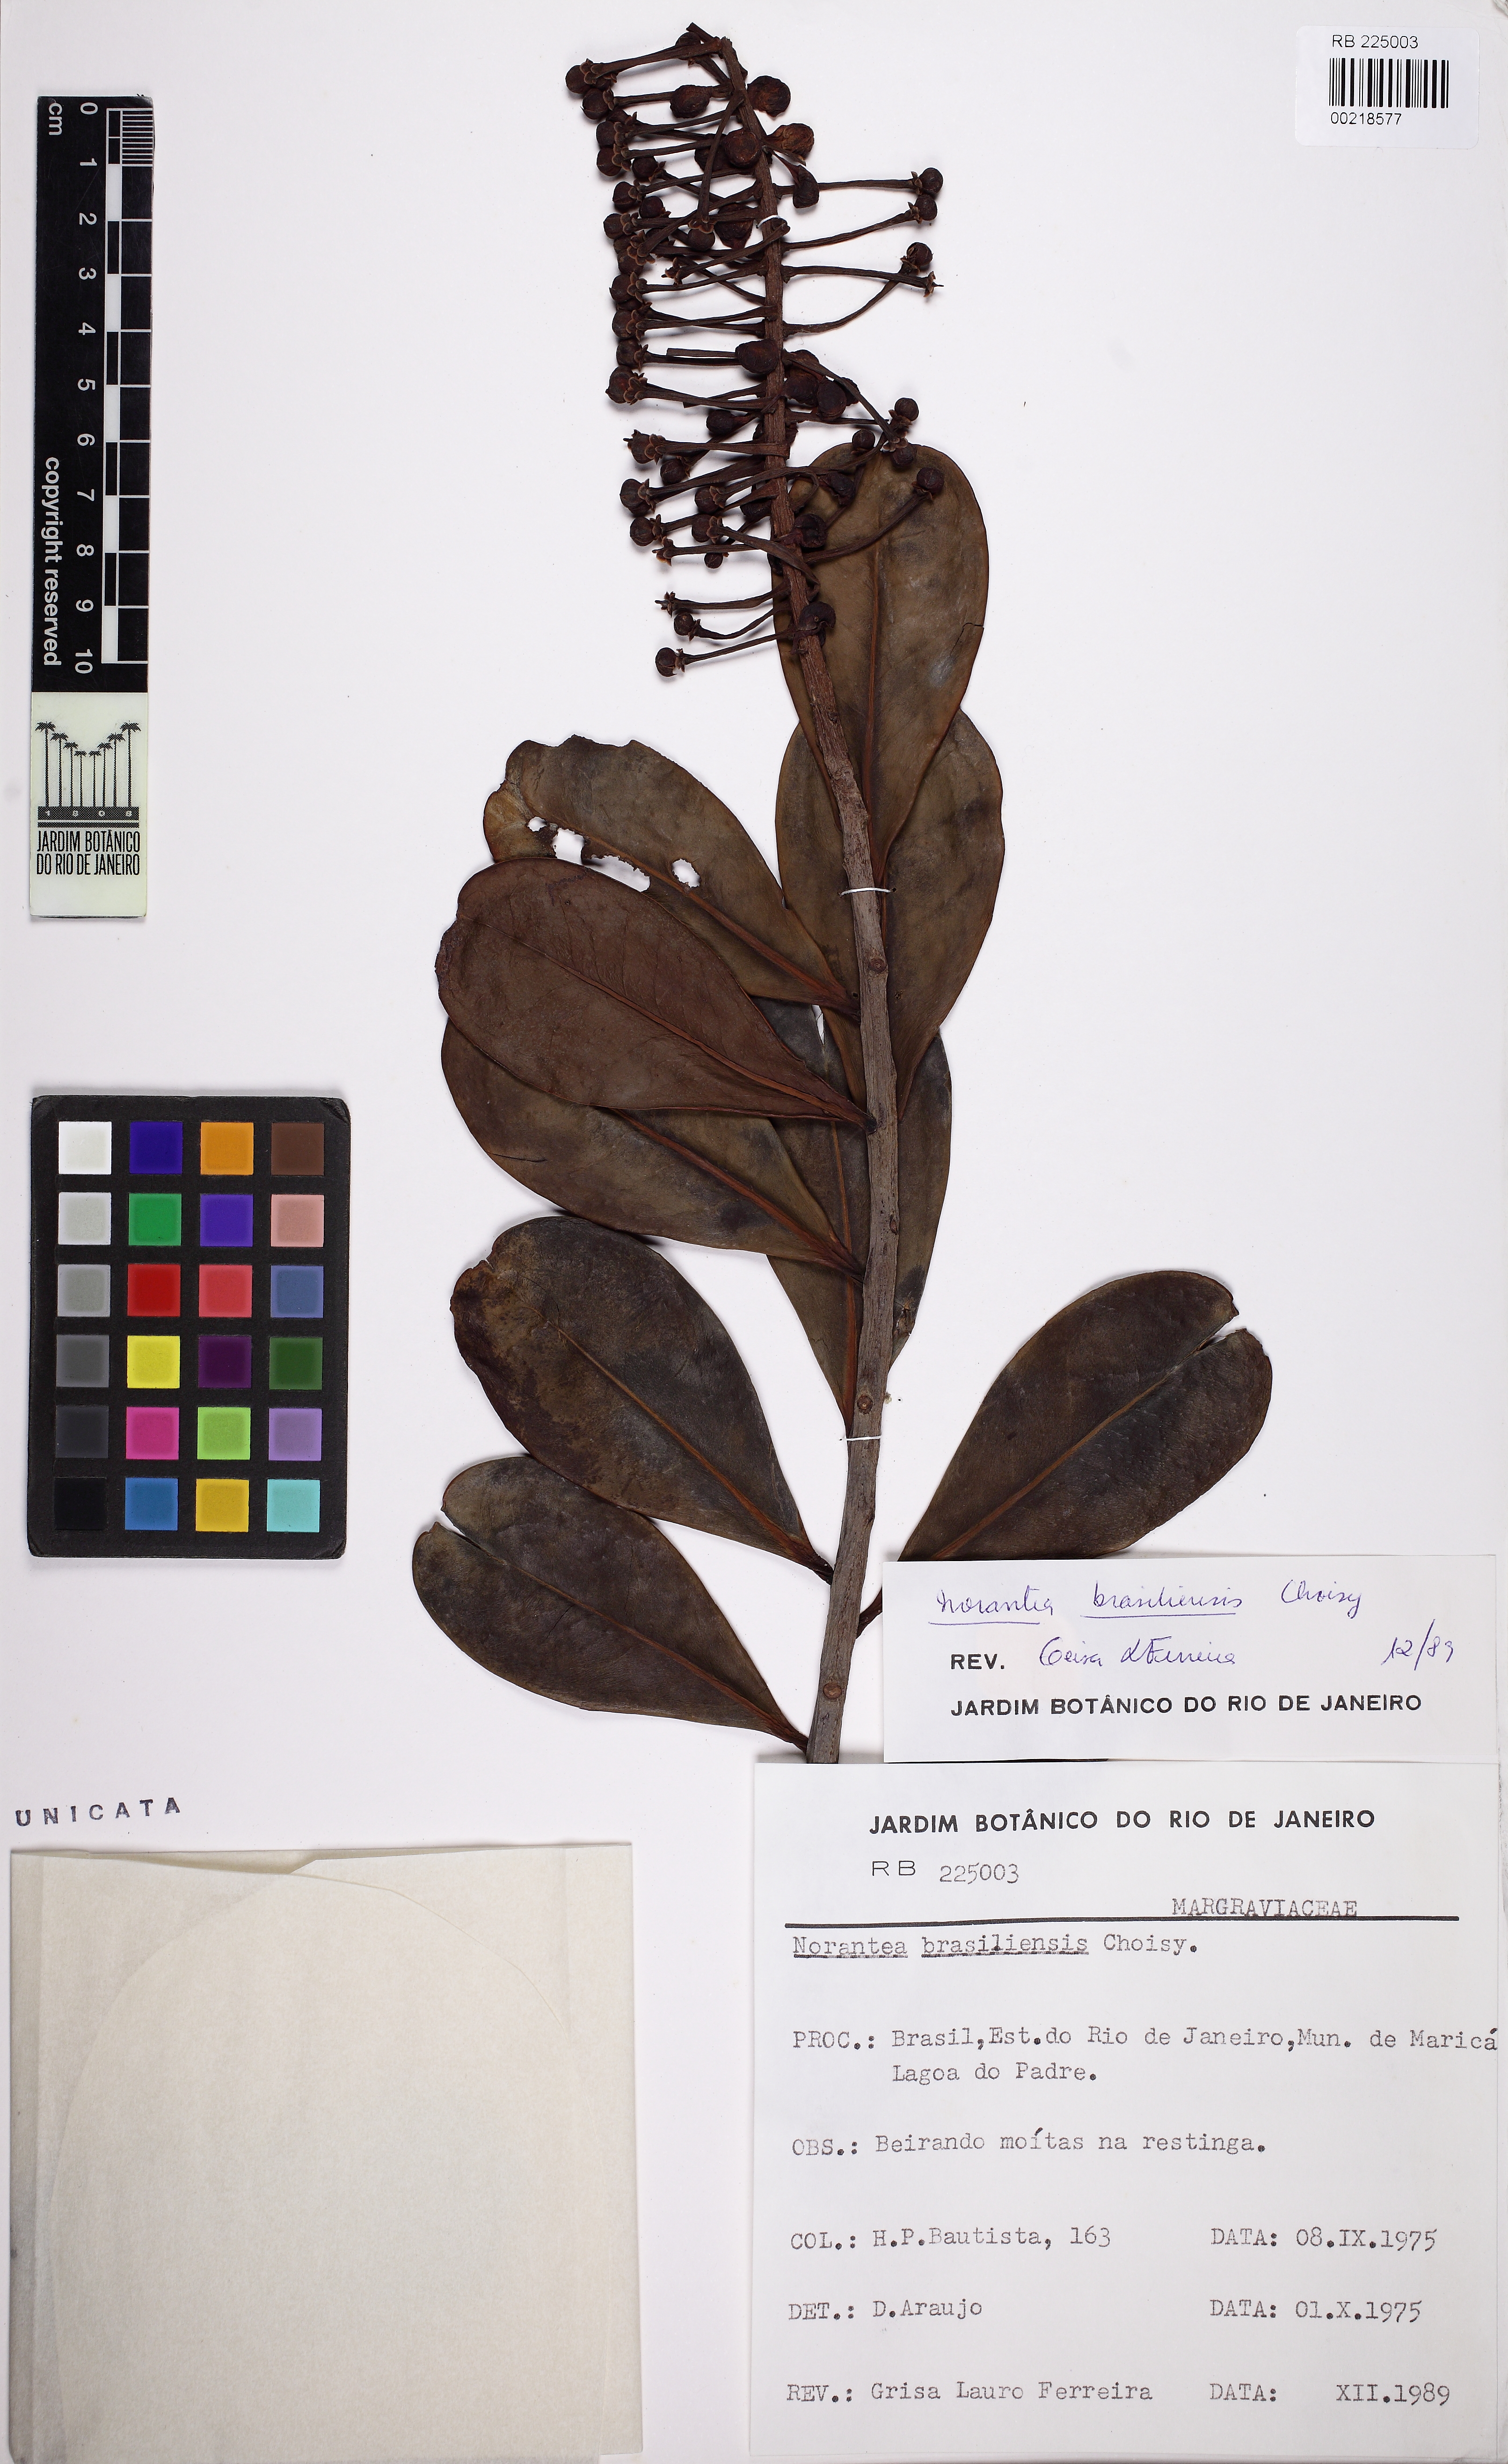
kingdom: Plantae
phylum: Tracheophyta
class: Magnoliopsida
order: Ericales
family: Marcgraviaceae
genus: Schwartzia
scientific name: Schwartzia brasiliensis
